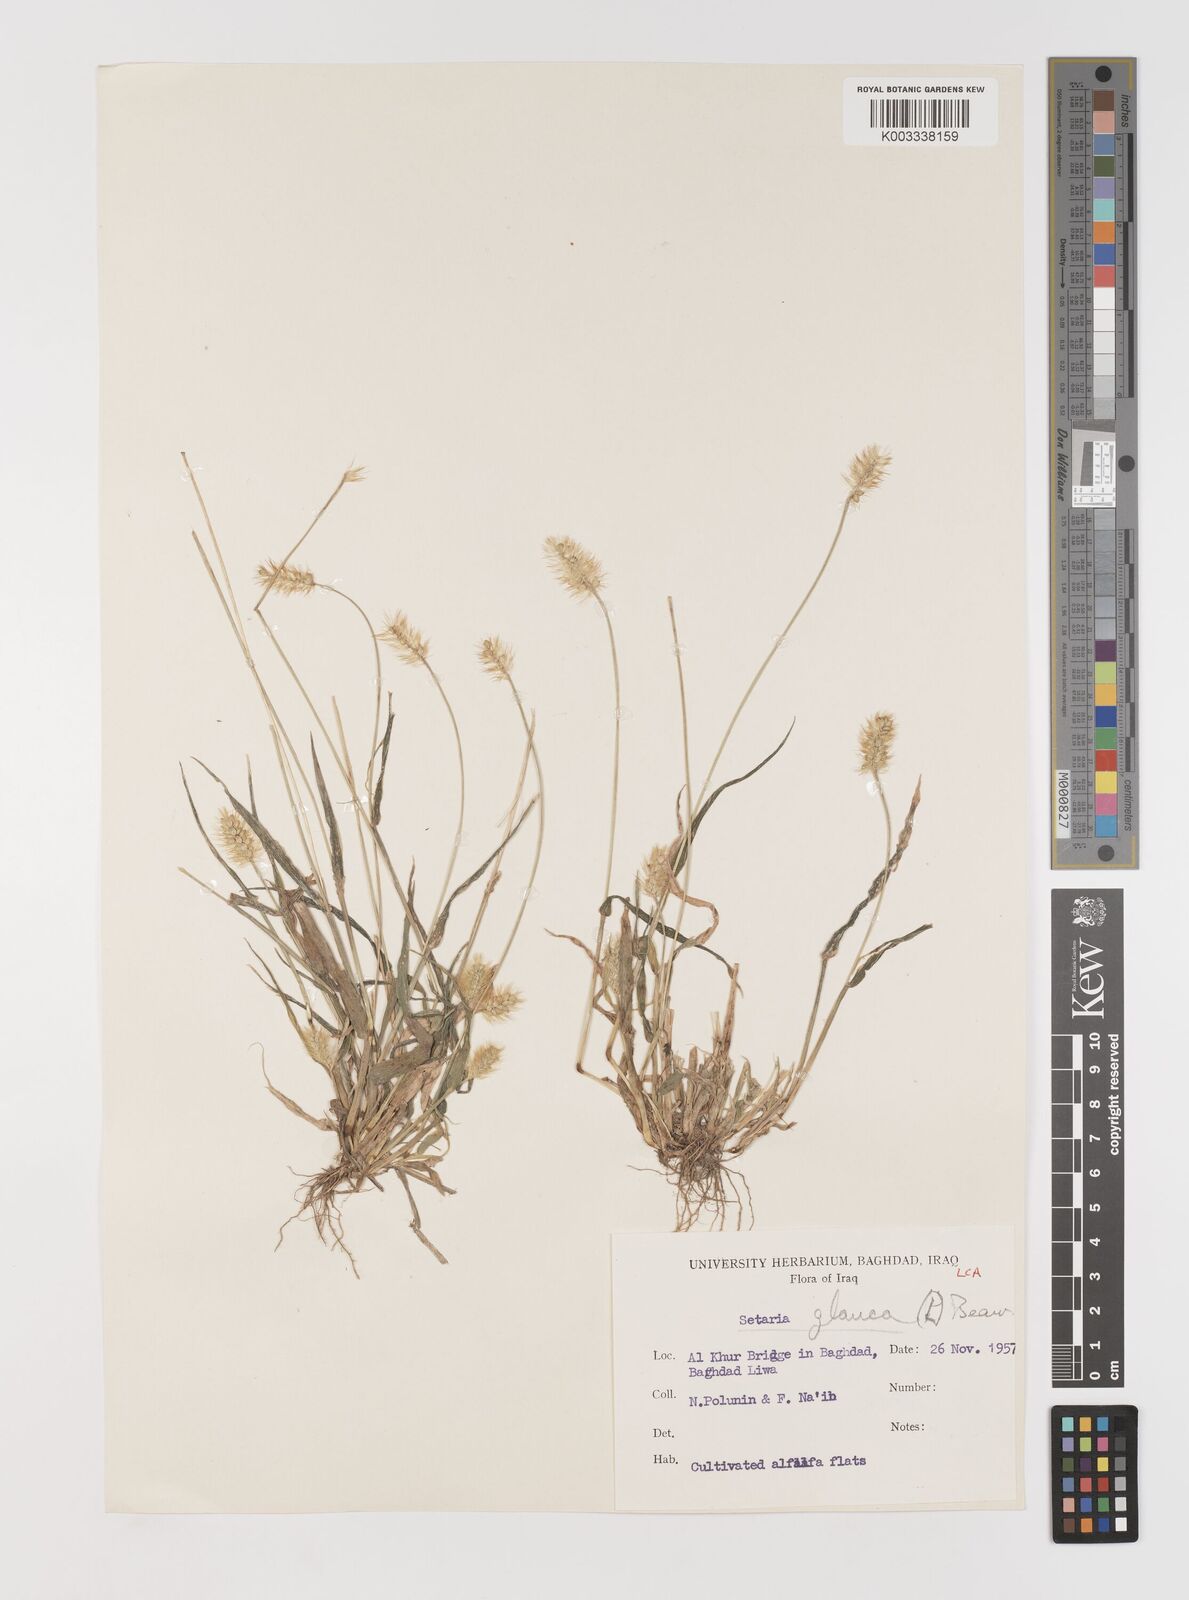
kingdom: Plantae
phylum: Tracheophyta
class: Liliopsida
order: Poales
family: Poaceae
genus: Setaria
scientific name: Setaria pumila
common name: Yellow bristle-grass
